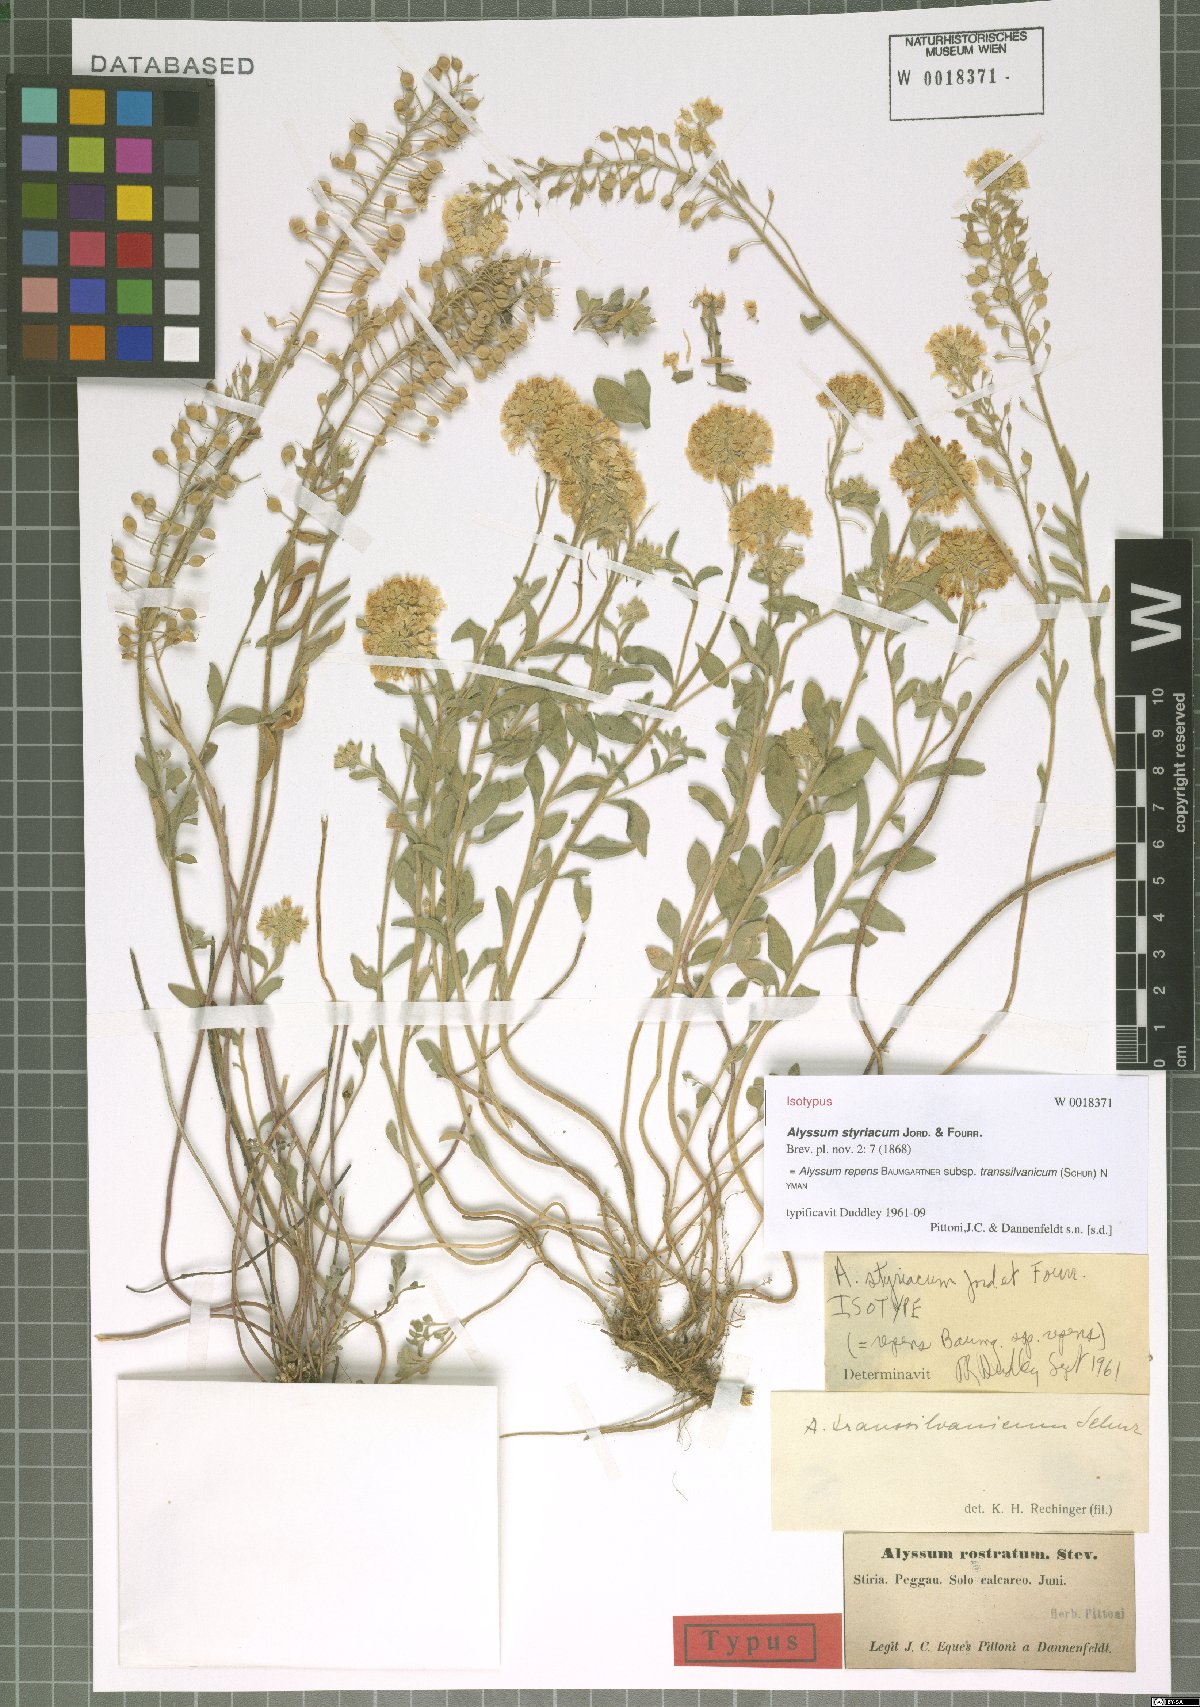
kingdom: Plantae
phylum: Tracheophyta
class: Magnoliopsida
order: Brassicales
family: Brassicaceae
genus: Alyssum
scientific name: Alyssum repens
